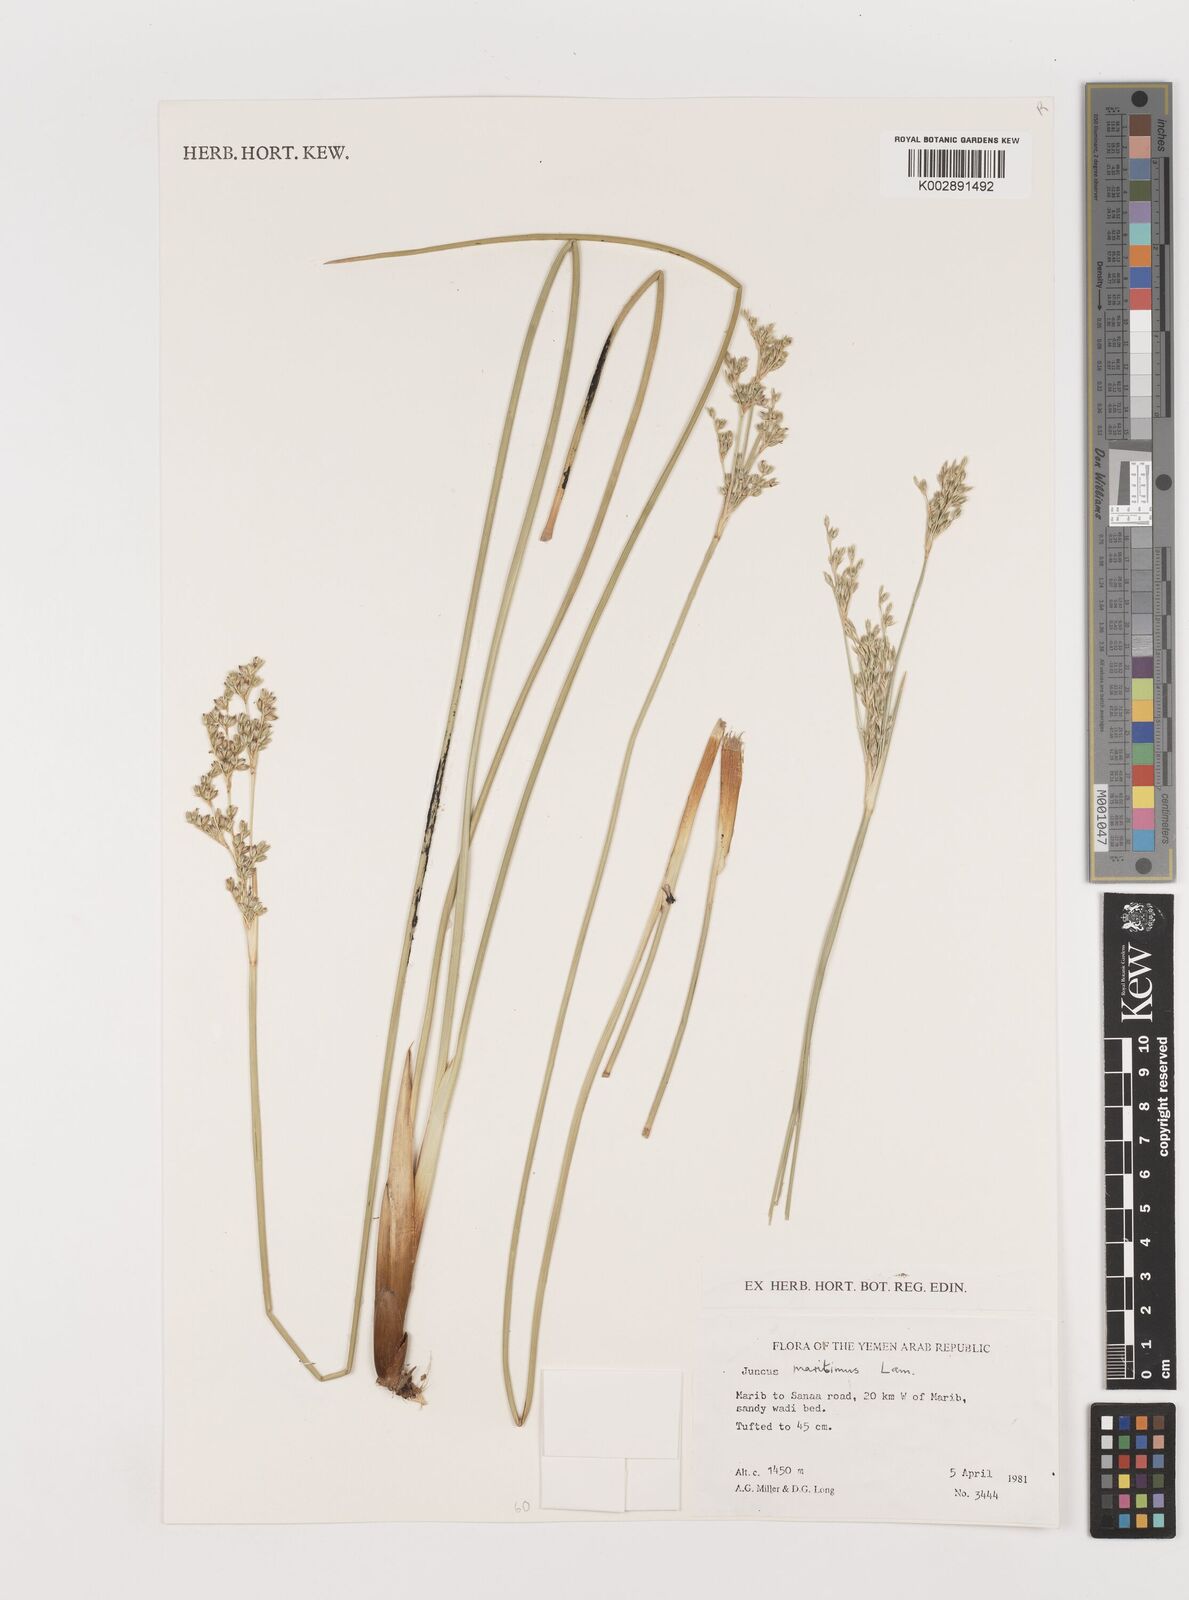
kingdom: Plantae
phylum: Tracheophyta
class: Liliopsida
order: Poales
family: Juncaceae
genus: Juncus
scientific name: Juncus maritimus
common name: Sea rush
